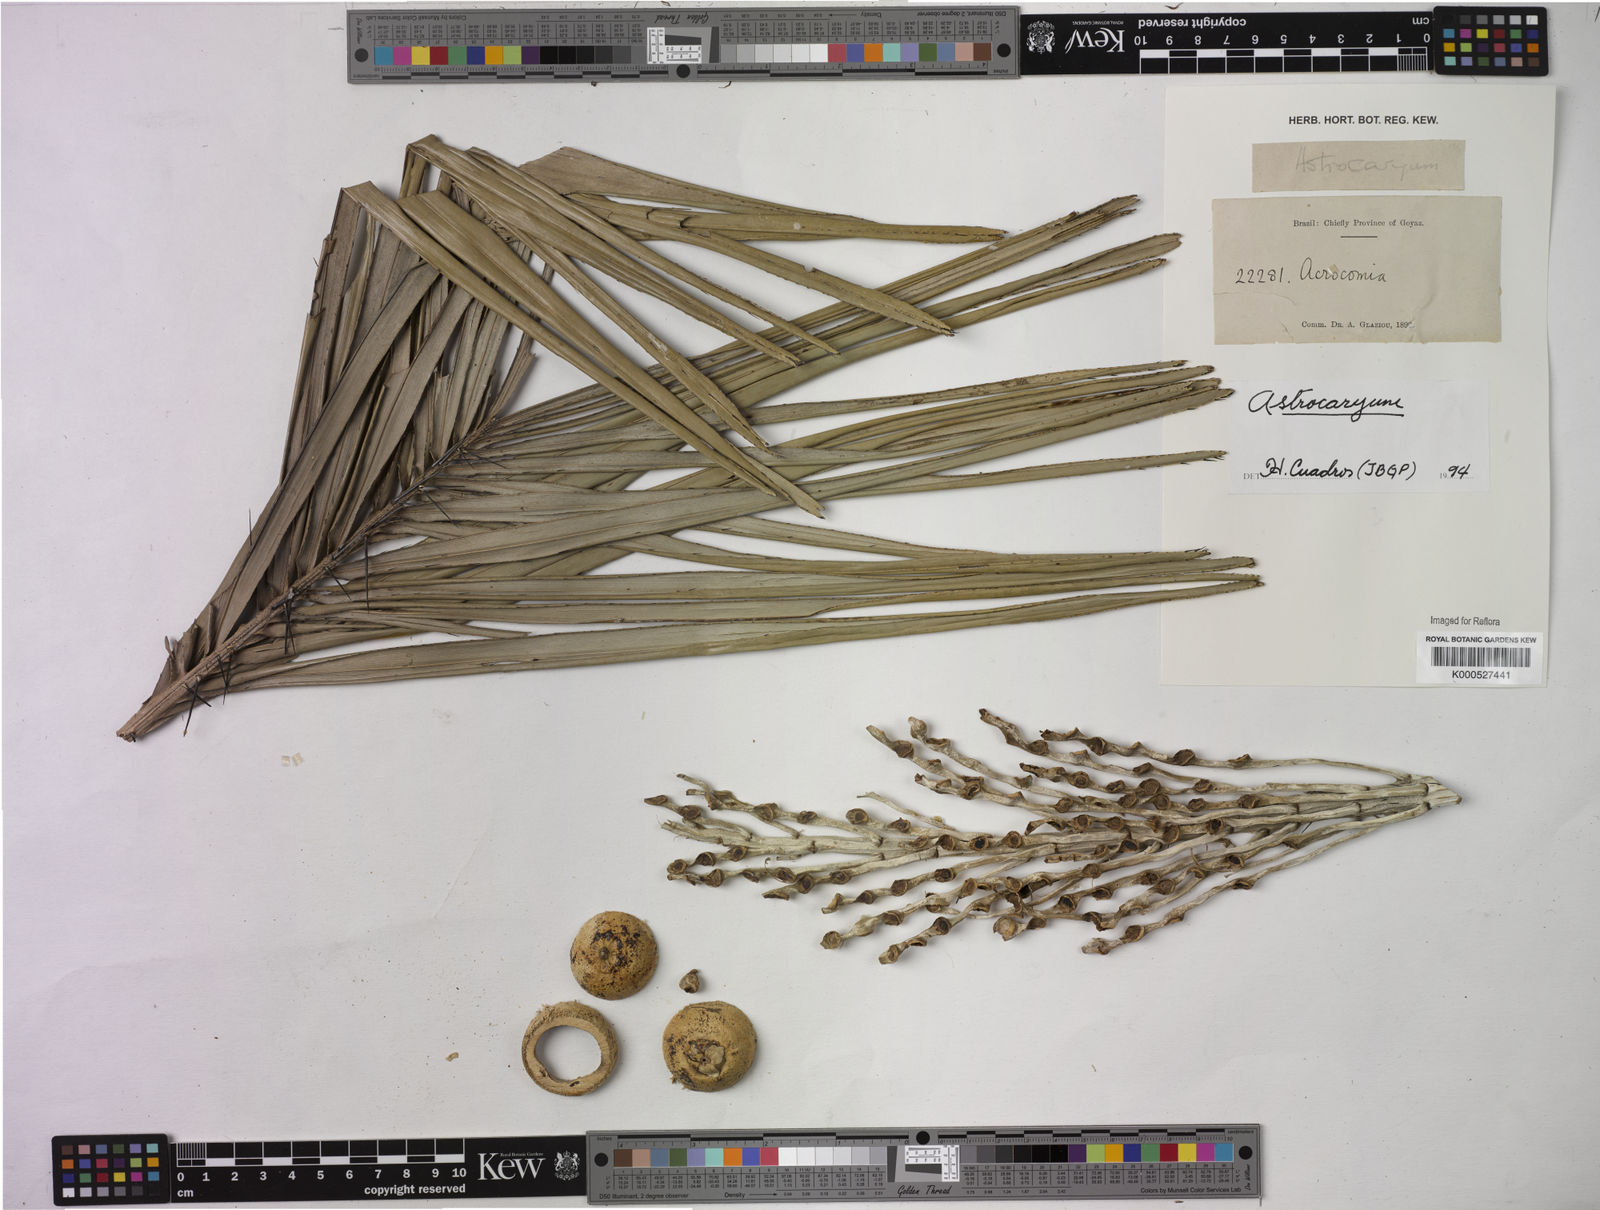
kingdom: Plantae
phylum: Tracheophyta
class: Liliopsida
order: Arecales
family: Arecaceae
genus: Astrocaryum
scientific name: Astrocaryum
